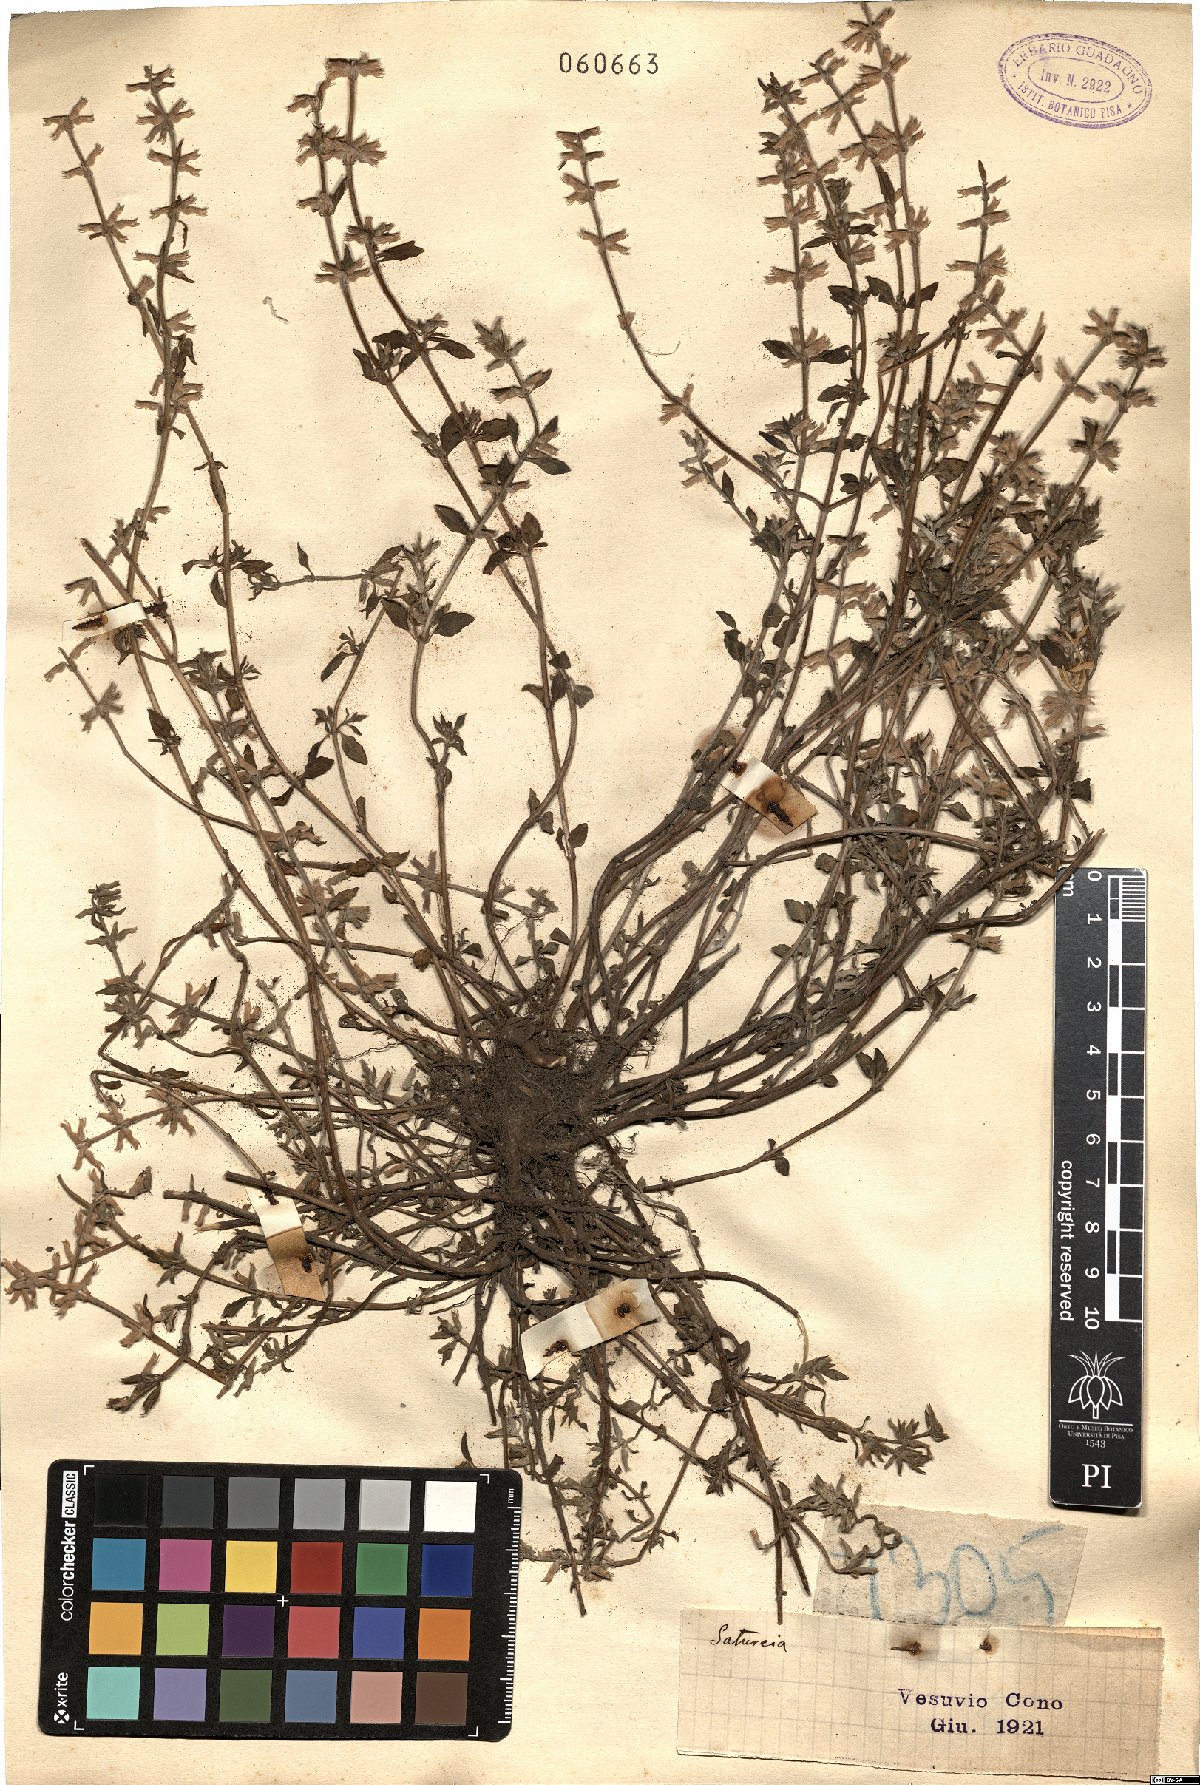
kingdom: Plantae
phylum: Tracheophyta
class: Magnoliopsida
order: Lamiales
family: Lamiaceae
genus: Satureja
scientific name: Satureja
